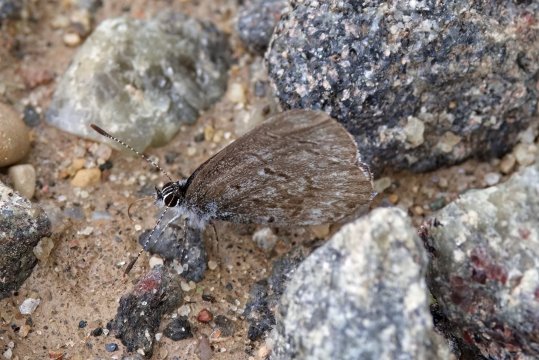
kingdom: Animalia
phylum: Arthropoda
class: Insecta
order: Lepidoptera
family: Lycaenidae
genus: Celastrina
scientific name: Celastrina lucia
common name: Northern Spring Azure
